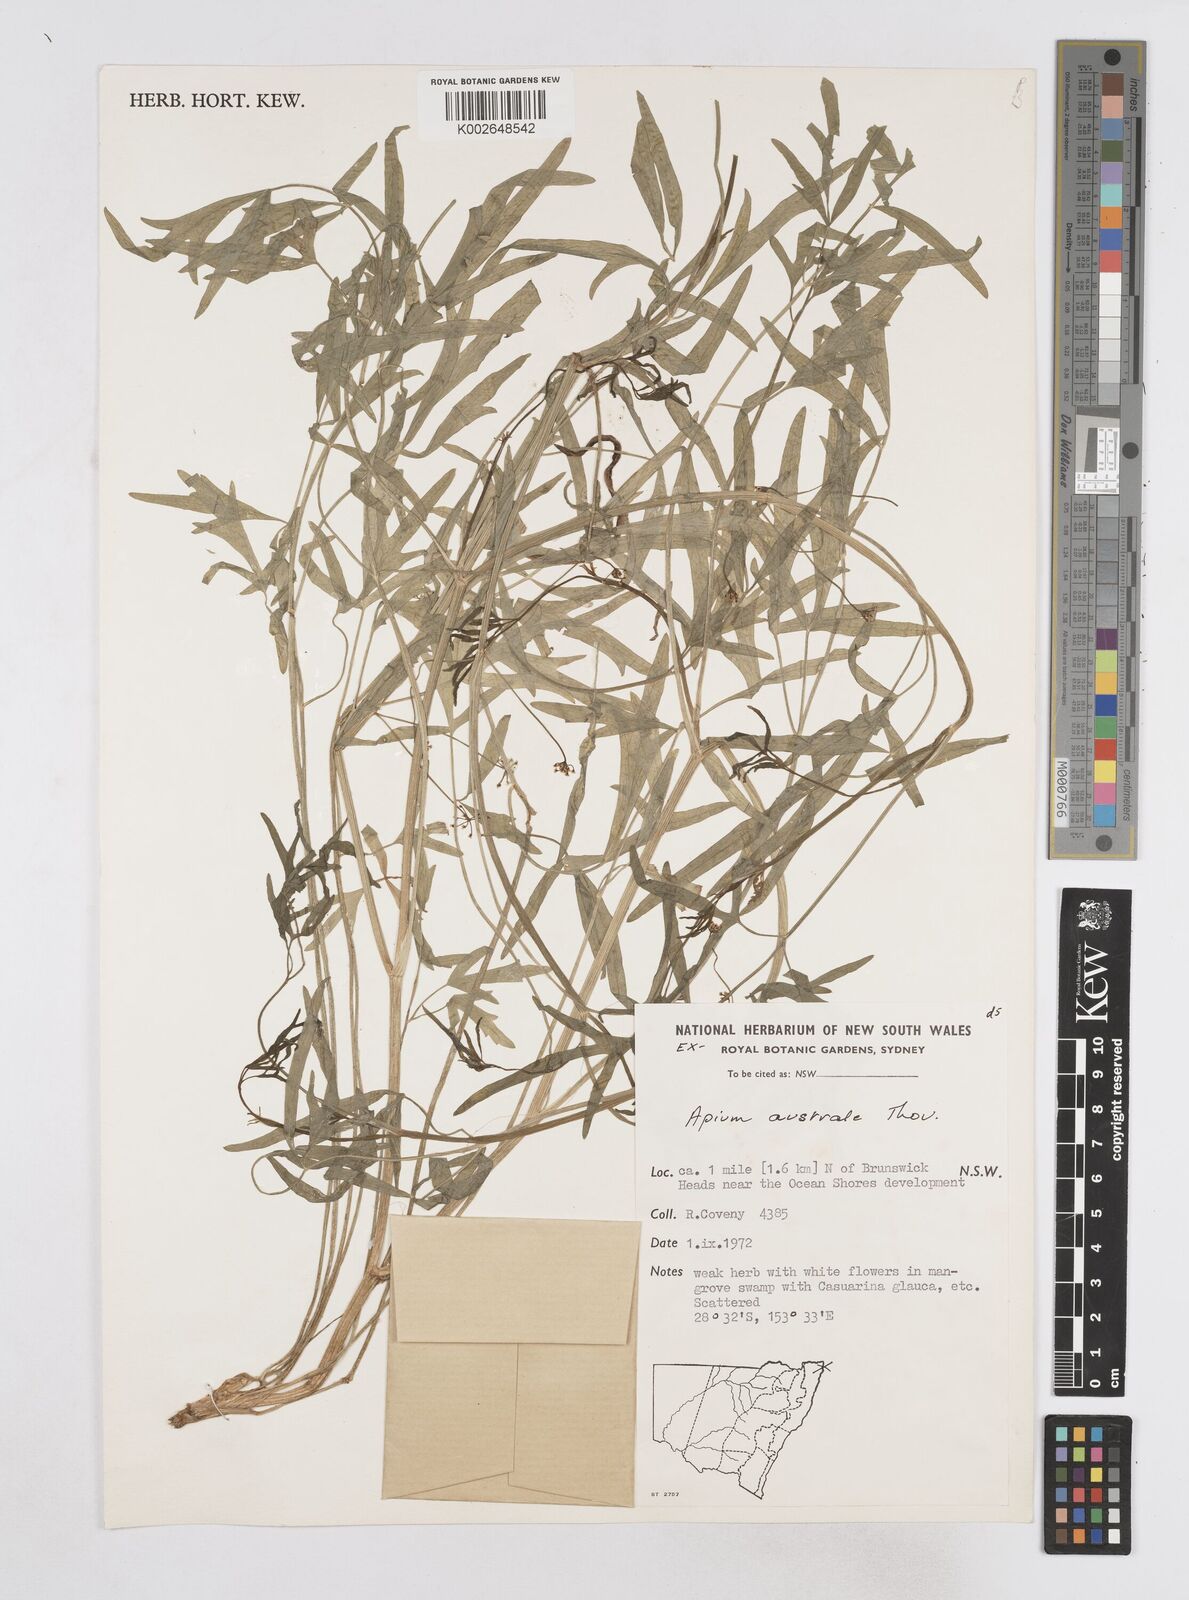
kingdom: Plantae
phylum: Tracheophyta
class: Magnoliopsida
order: Apiales
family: Apiaceae
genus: Apium
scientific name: Apium prostratum
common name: Prostrate marshwort
